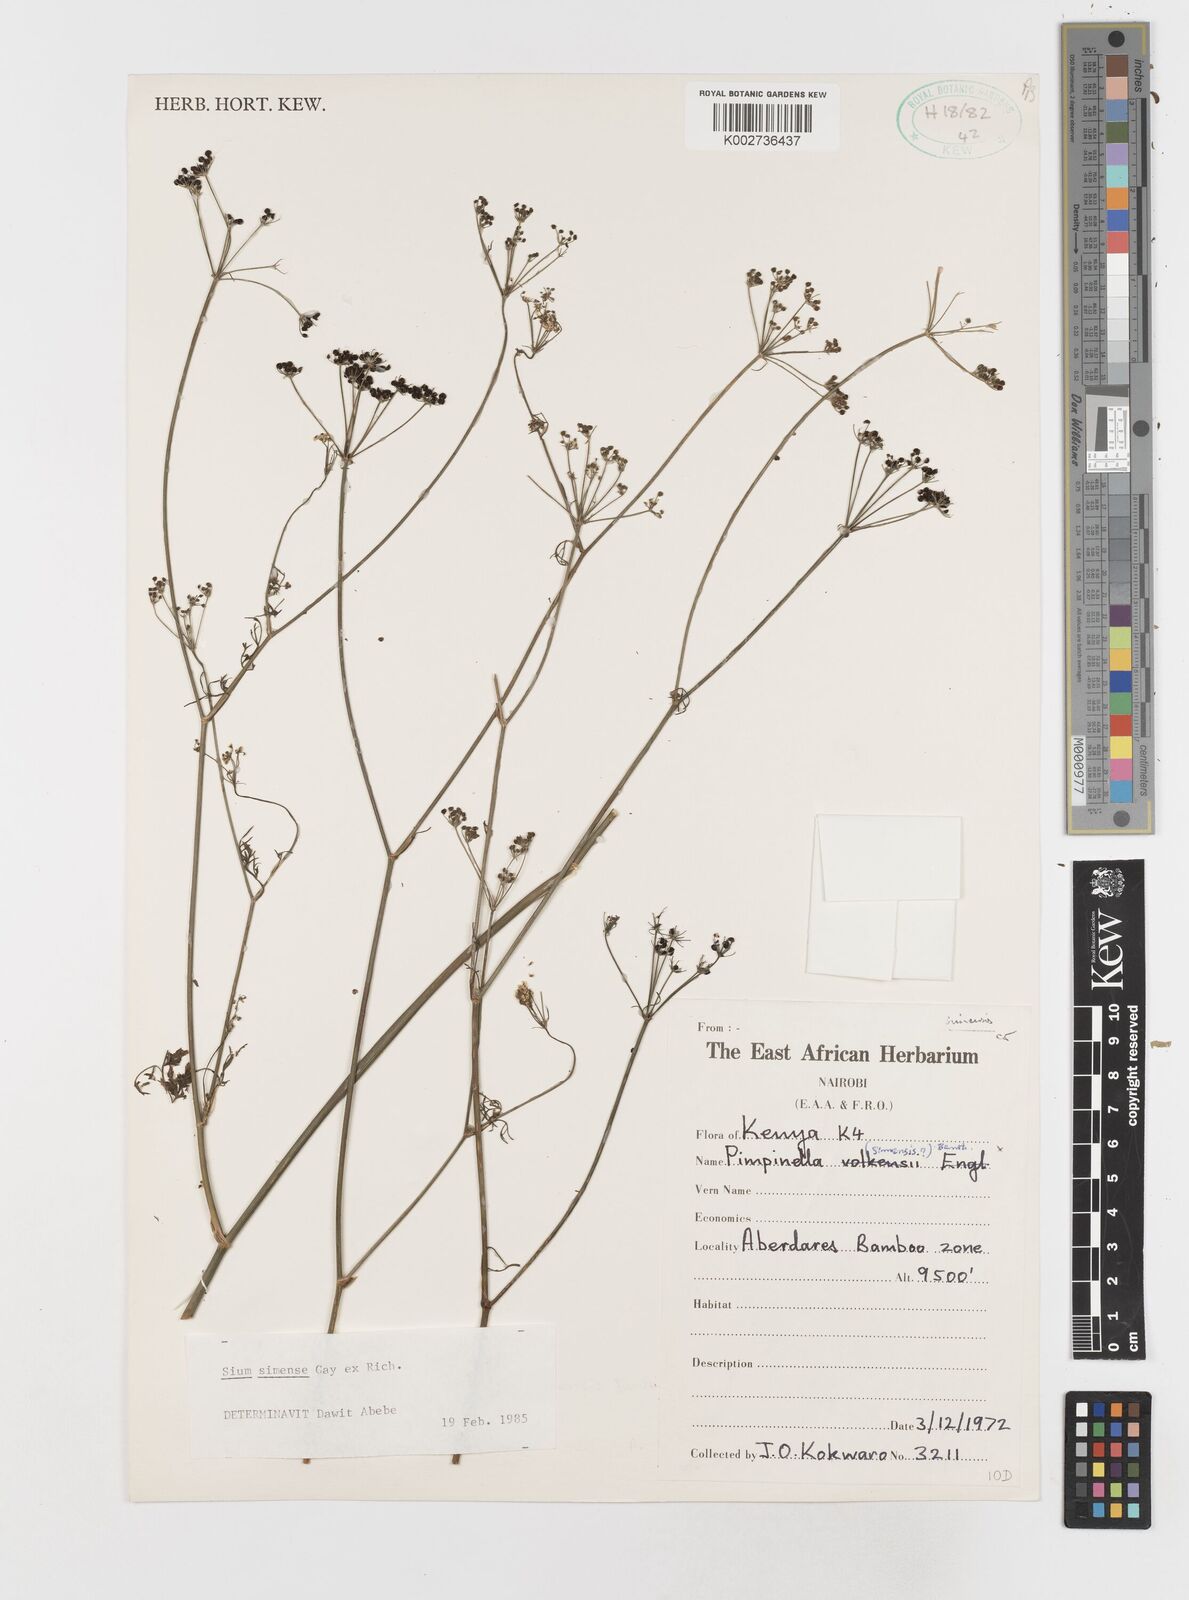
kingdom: Plantae
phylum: Tracheophyta
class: Magnoliopsida
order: Apiales
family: Apiaceae
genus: Oreoschimperella
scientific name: Oreoschimperella verrucosa
